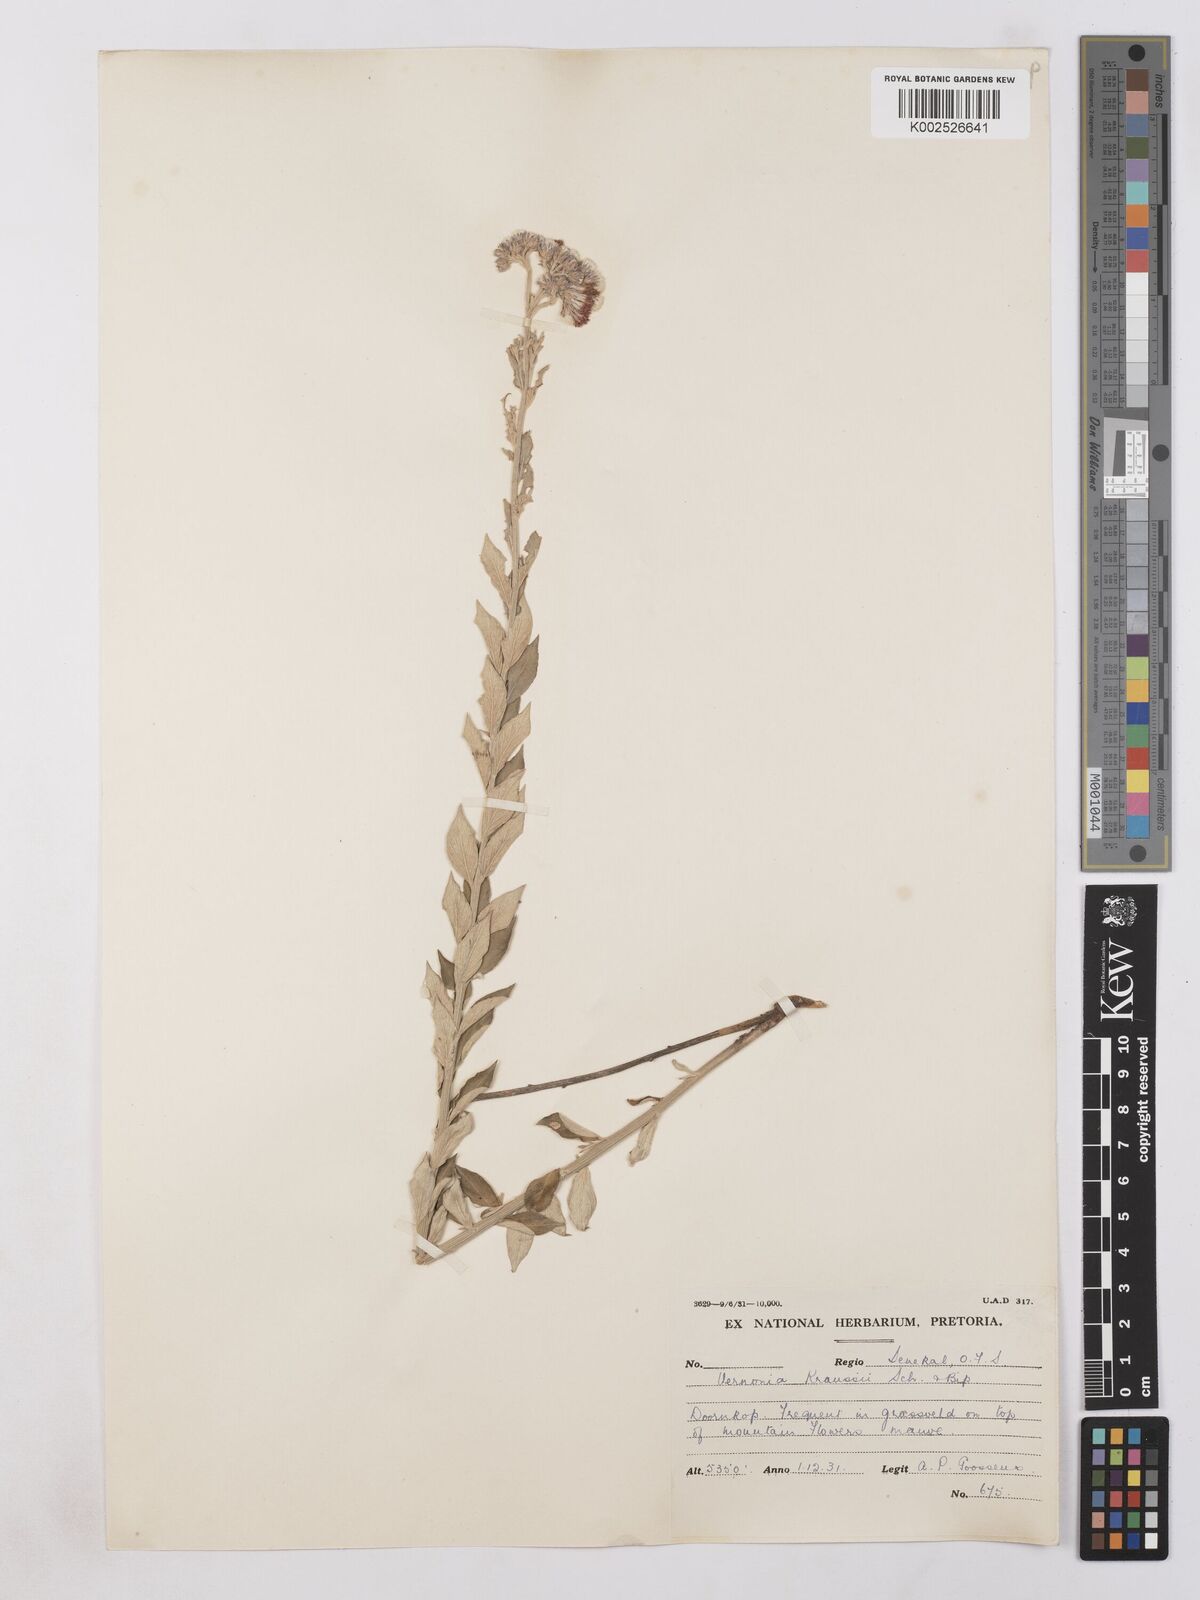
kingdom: Plantae
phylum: Tracheophyta
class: Magnoliopsida
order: Asterales
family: Asteraceae
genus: Hilliardiella
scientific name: Hilliardiella oligocephala
